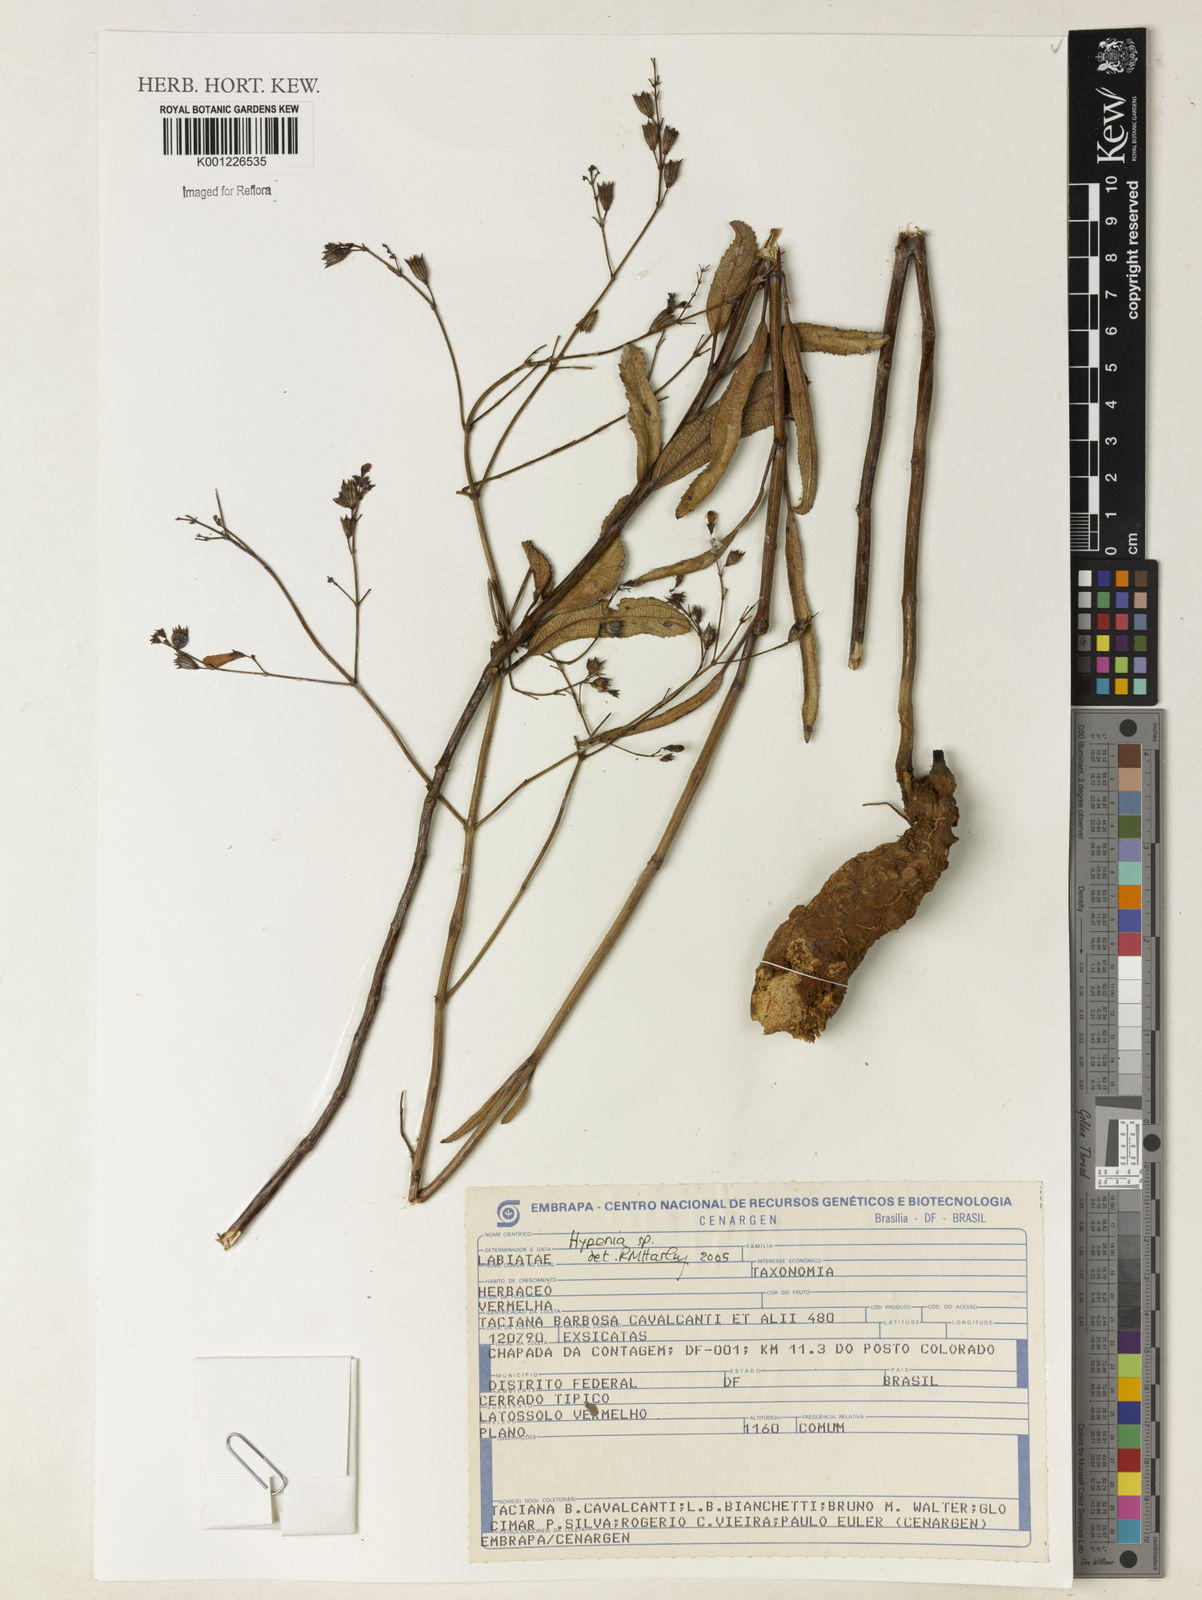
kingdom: Plantae
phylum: Tracheophyta
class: Magnoliopsida
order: Lamiales
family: Lamiaceae
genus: Hypenia
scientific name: Hypenia
